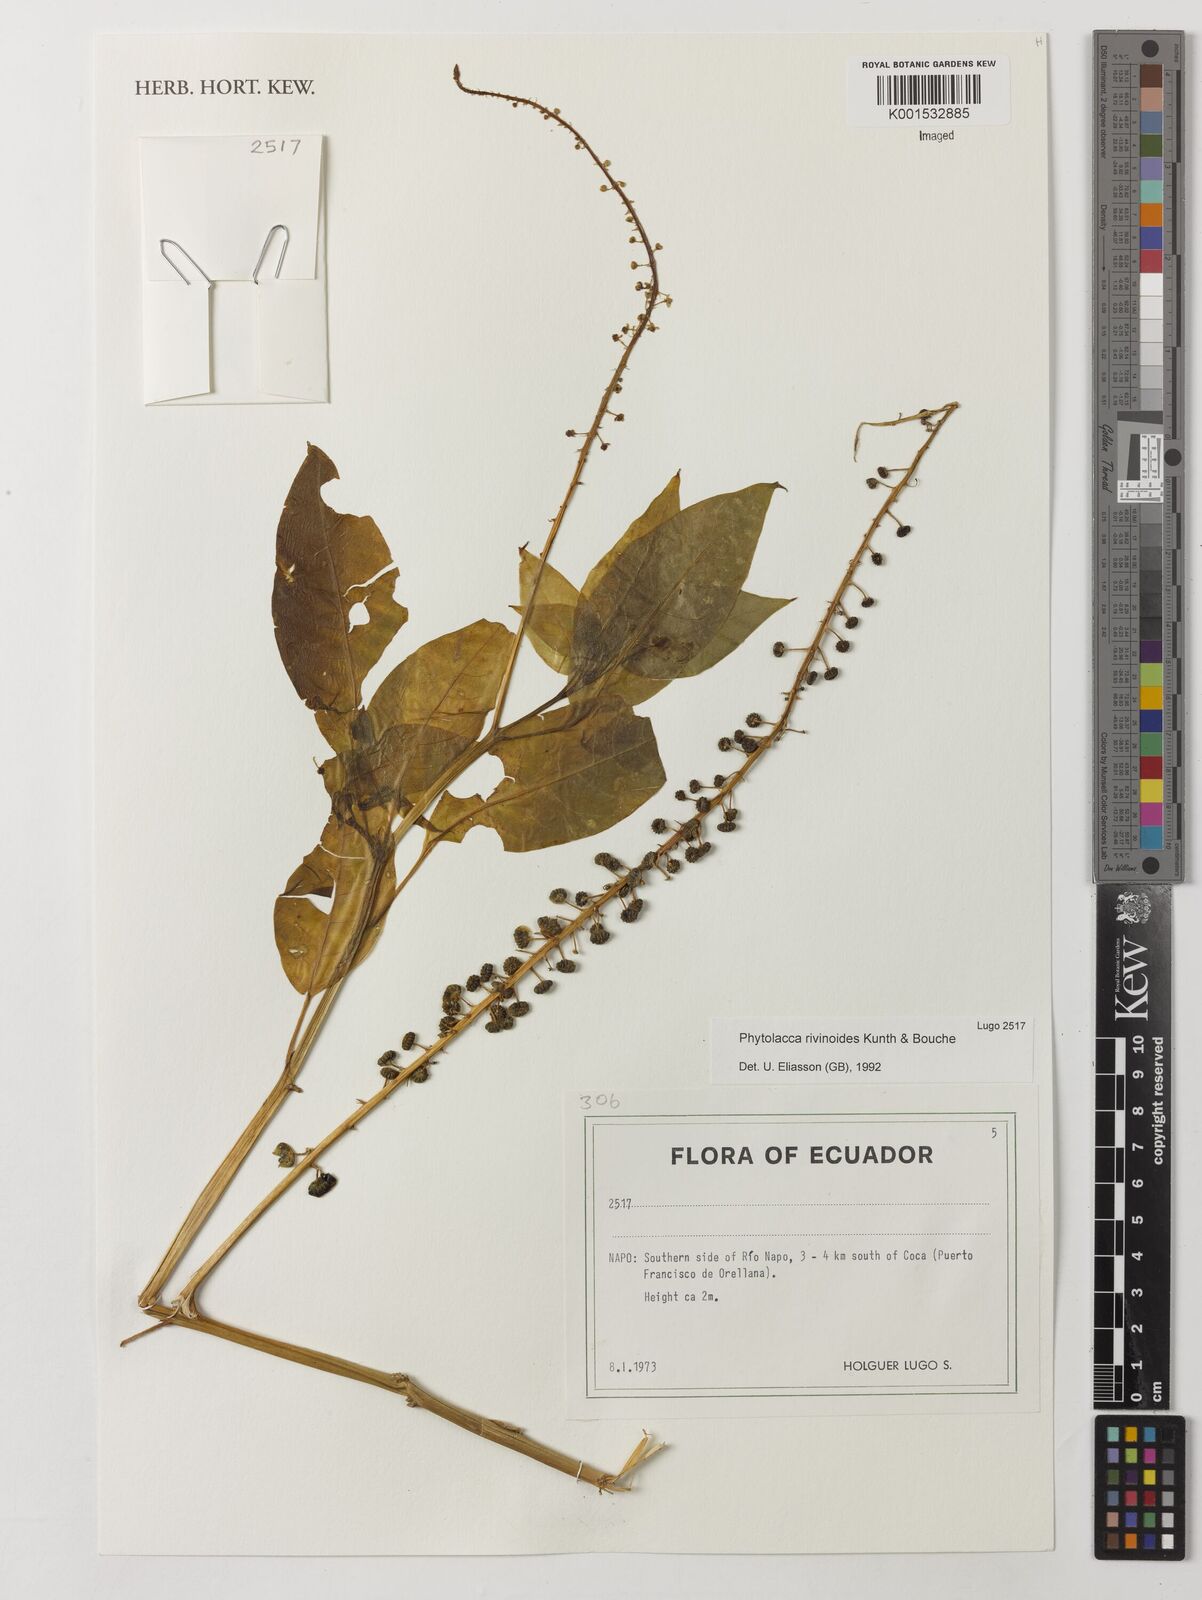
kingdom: Plantae
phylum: Tracheophyta
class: Magnoliopsida
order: Caryophyllales
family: Phytolaccaceae
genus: Phytolacca
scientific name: Phytolacca rivinoides
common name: Venezuelan pokeweed
